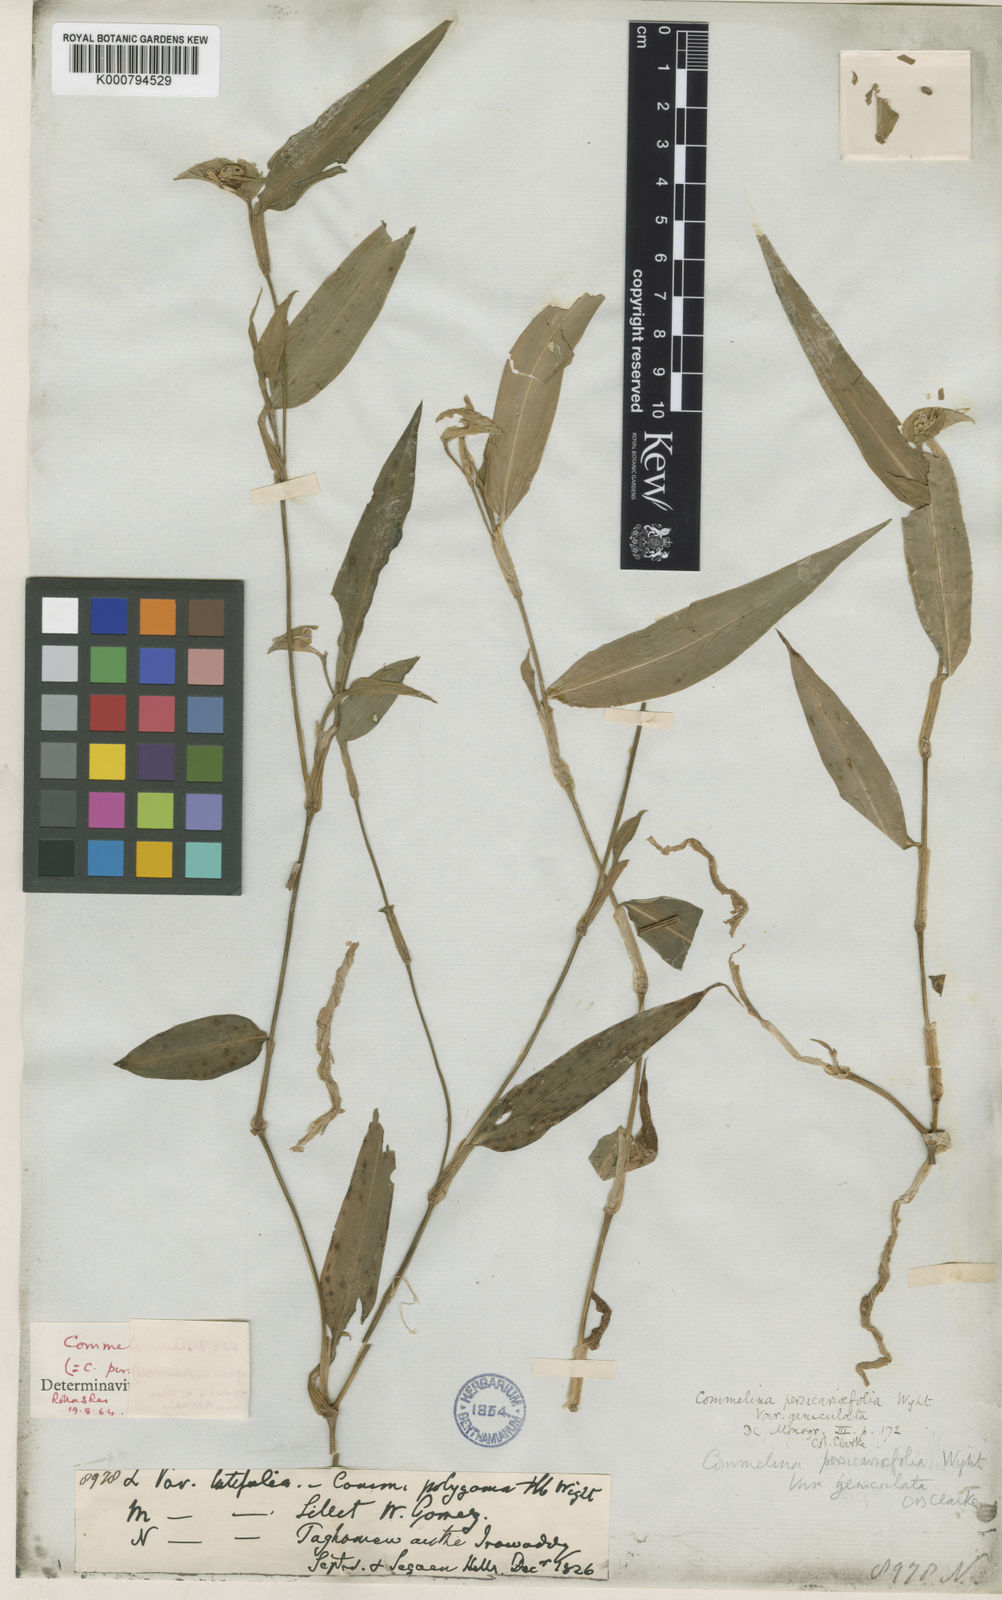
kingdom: Plantae
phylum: Tracheophyta
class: Liliopsida
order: Commelinales
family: Commelinaceae
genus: Commelina
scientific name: Commelina petersii
